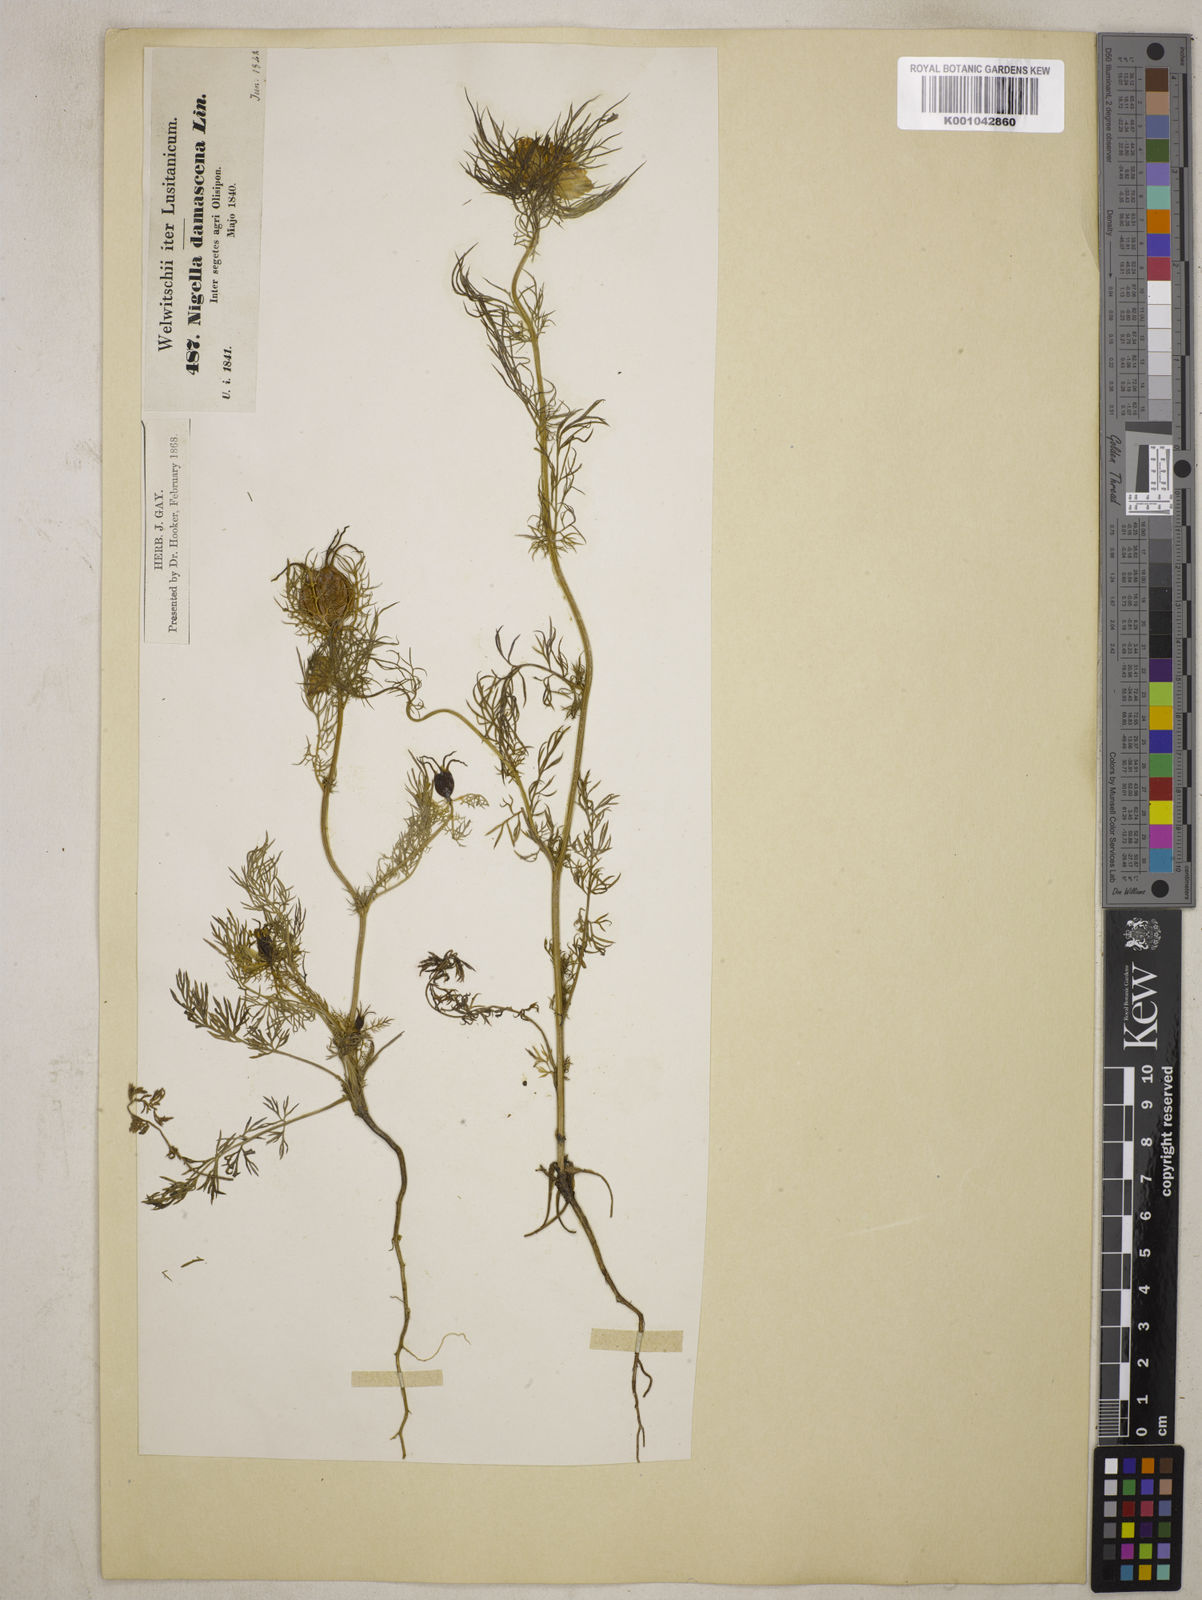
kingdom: Plantae
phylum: Tracheophyta
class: Magnoliopsida
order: Ranunculales
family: Ranunculaceae
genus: Nigella
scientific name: Nigella damascena
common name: Love-in-a-mist
